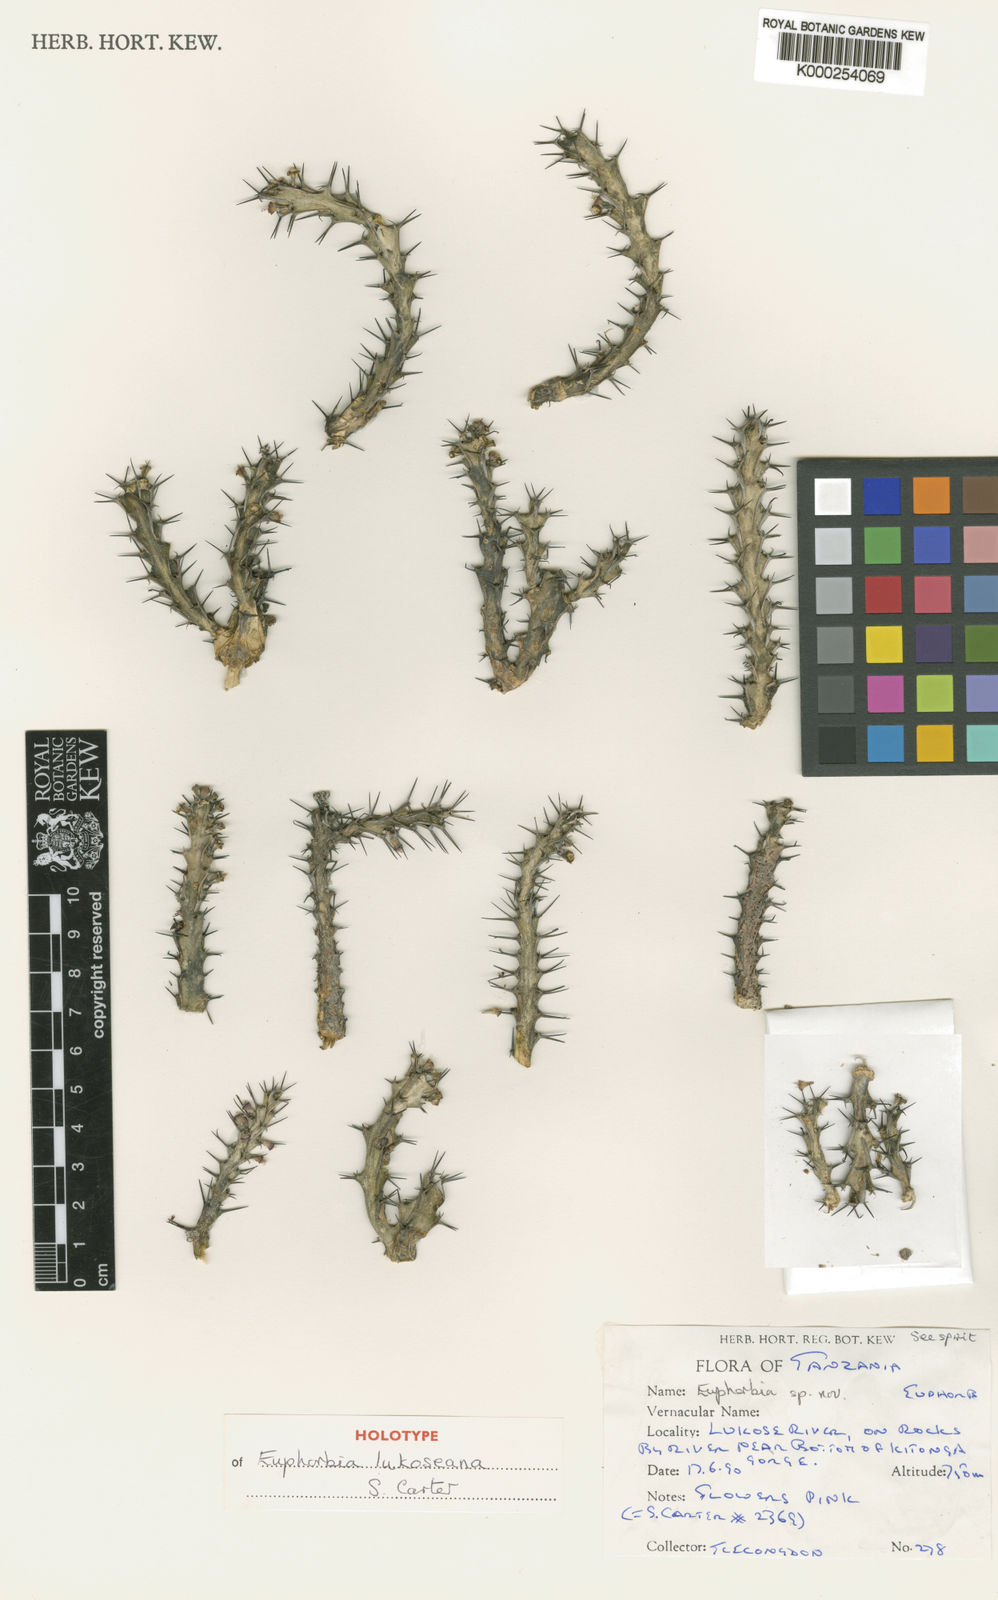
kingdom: Plantae
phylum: Tracheophyta
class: Magnoliopsida
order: Malpighiales
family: Euphorbiaceae
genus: Euphorbia
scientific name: Euphorbia lukoseana
